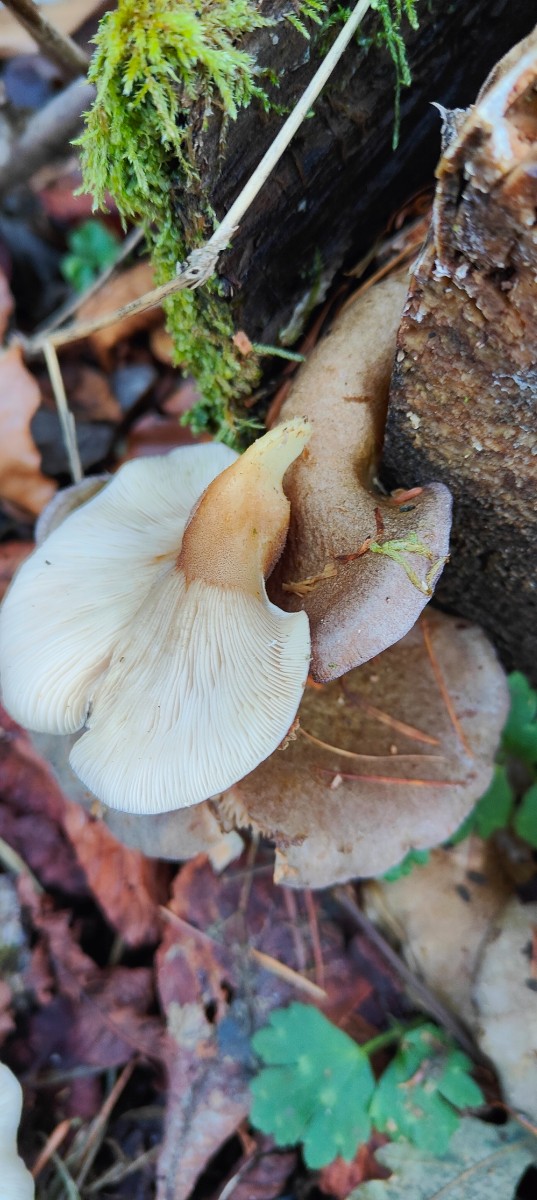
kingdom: Fungi
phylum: Basidiomycota
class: Agaricomycetes
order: Agaricales
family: Sarcomyxaceae
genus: Sarcomyxa
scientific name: Sarcomyxa serotina
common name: gummihat
